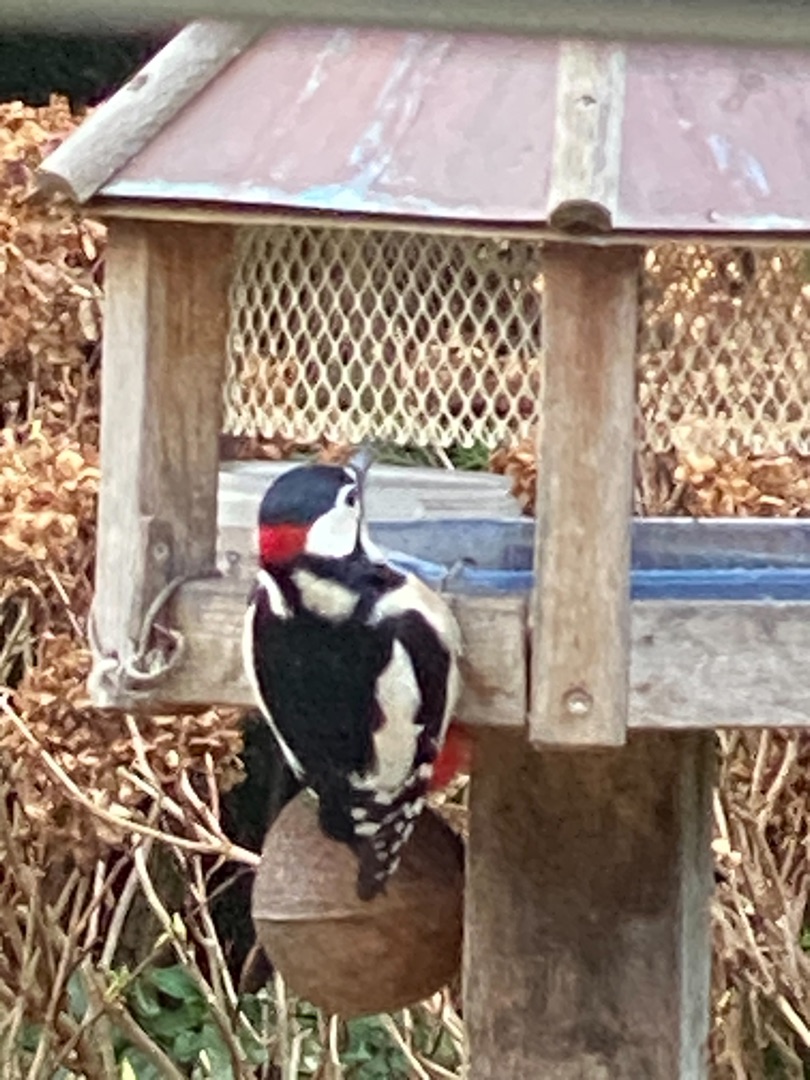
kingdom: Animalia
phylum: Chordata
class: Aves
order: Piciformes
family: Picidae
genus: Dendrocopos
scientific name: Dendrocopos major
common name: Stor flagspætte
